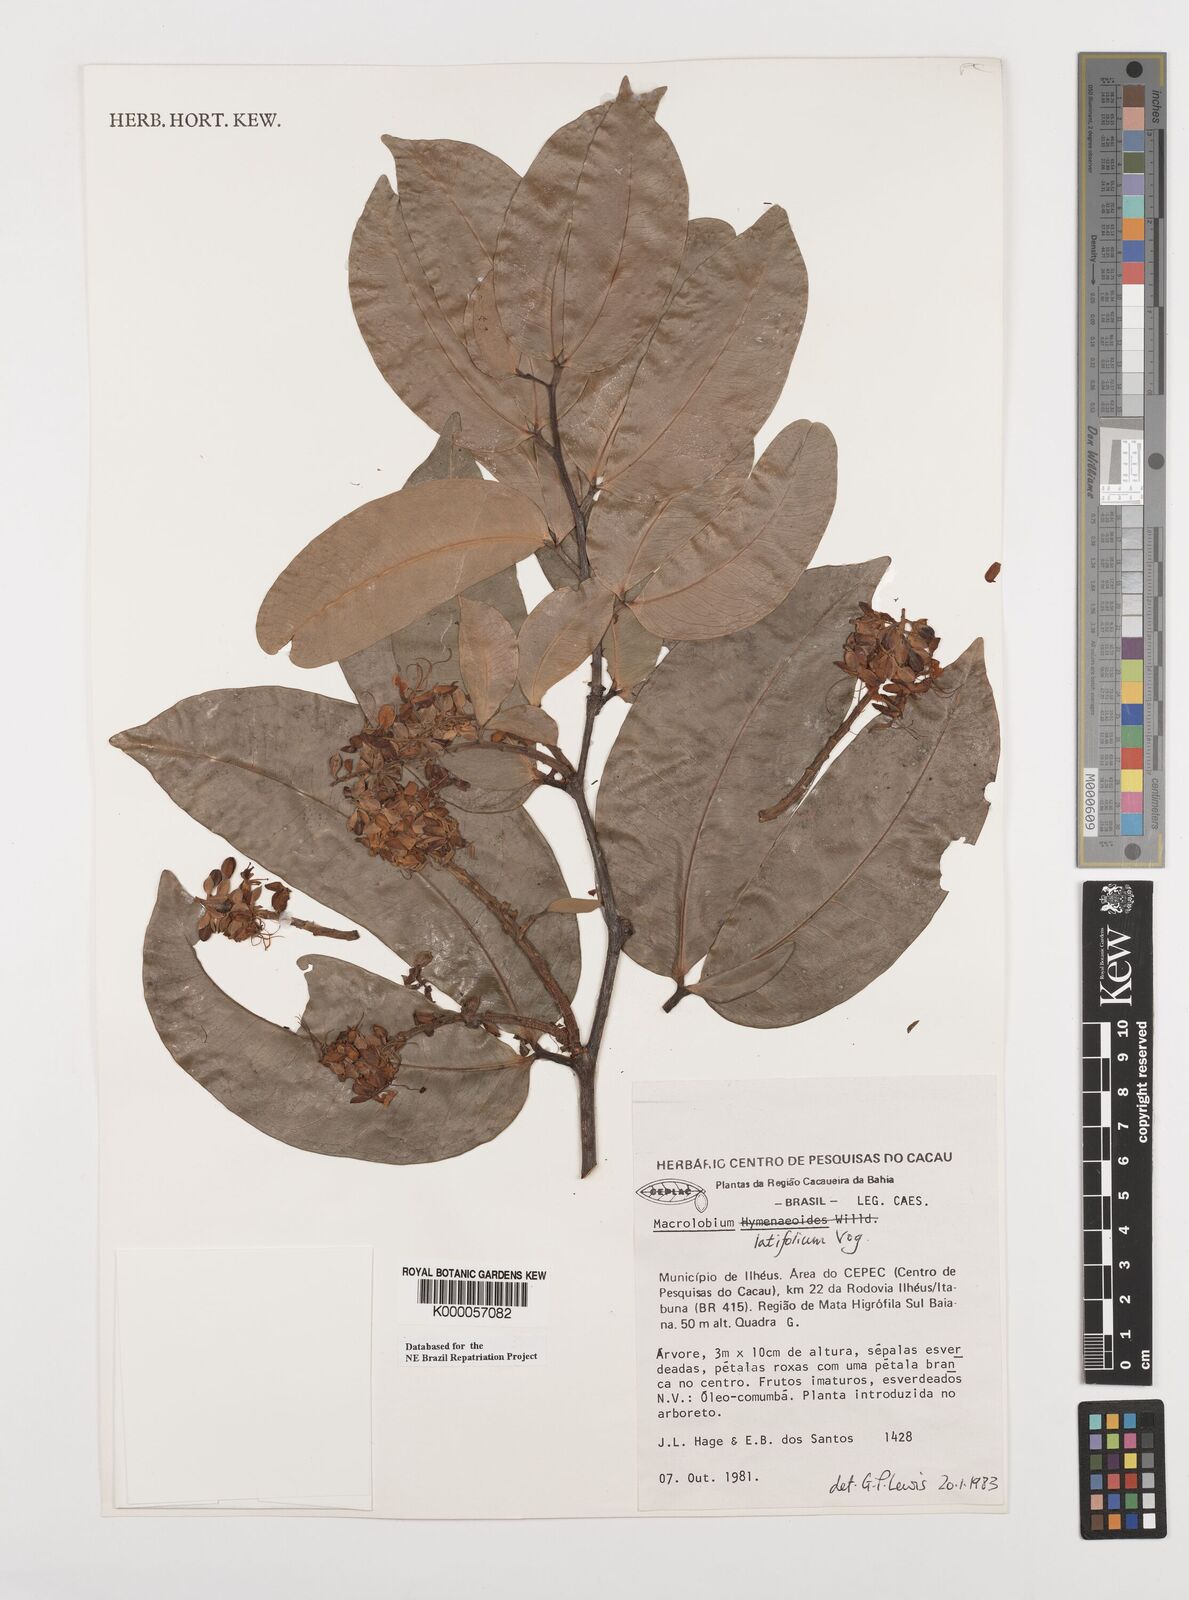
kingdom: Plantae
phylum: Tracheophyta
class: Magnoliopsida
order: Fabales
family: Fabaceae
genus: Macrolobium
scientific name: Macrolobium latifolium
